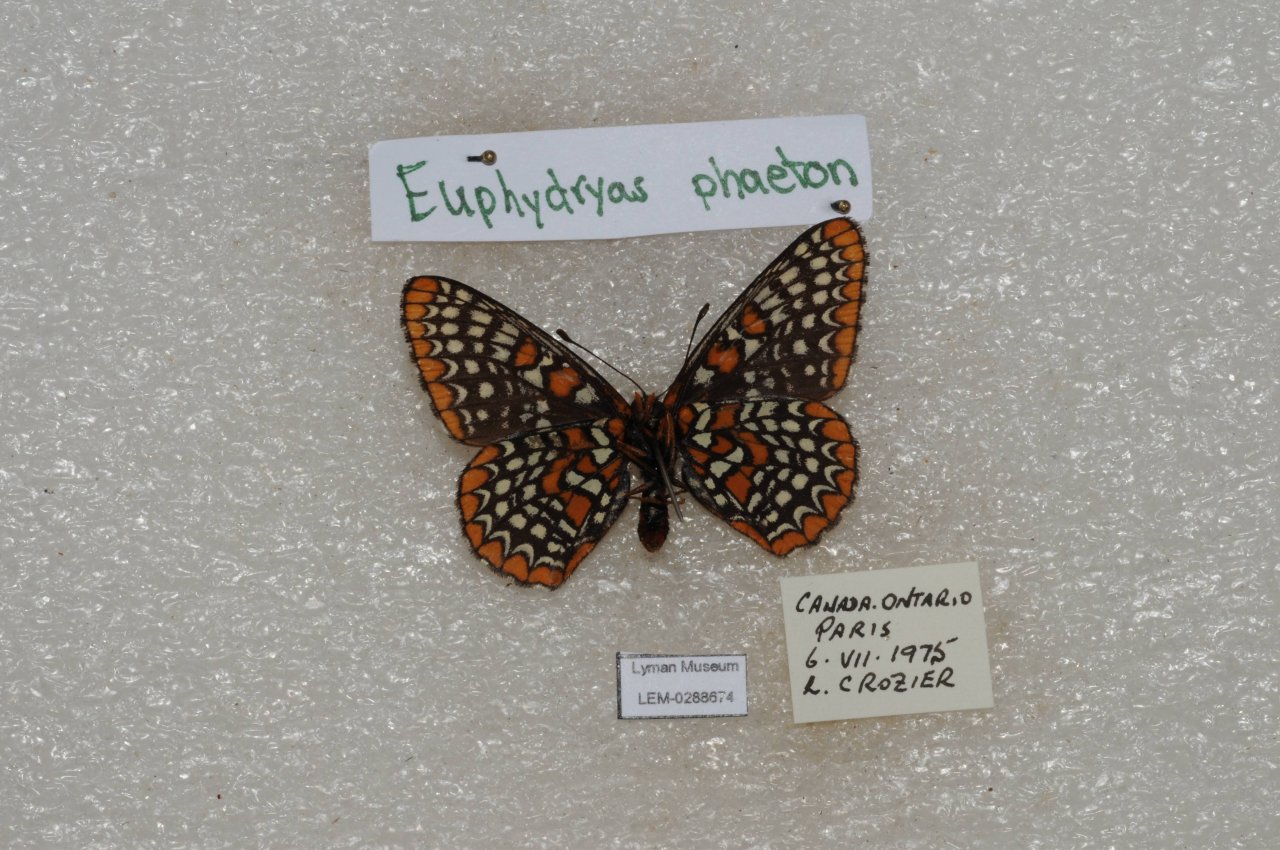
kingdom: Animalia
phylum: Arthropoda
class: Insecta
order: Lepidoptera
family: Nymphalidae
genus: Euphydryas
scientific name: Euphydryas phaeton
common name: Baltimore Checkerspot
